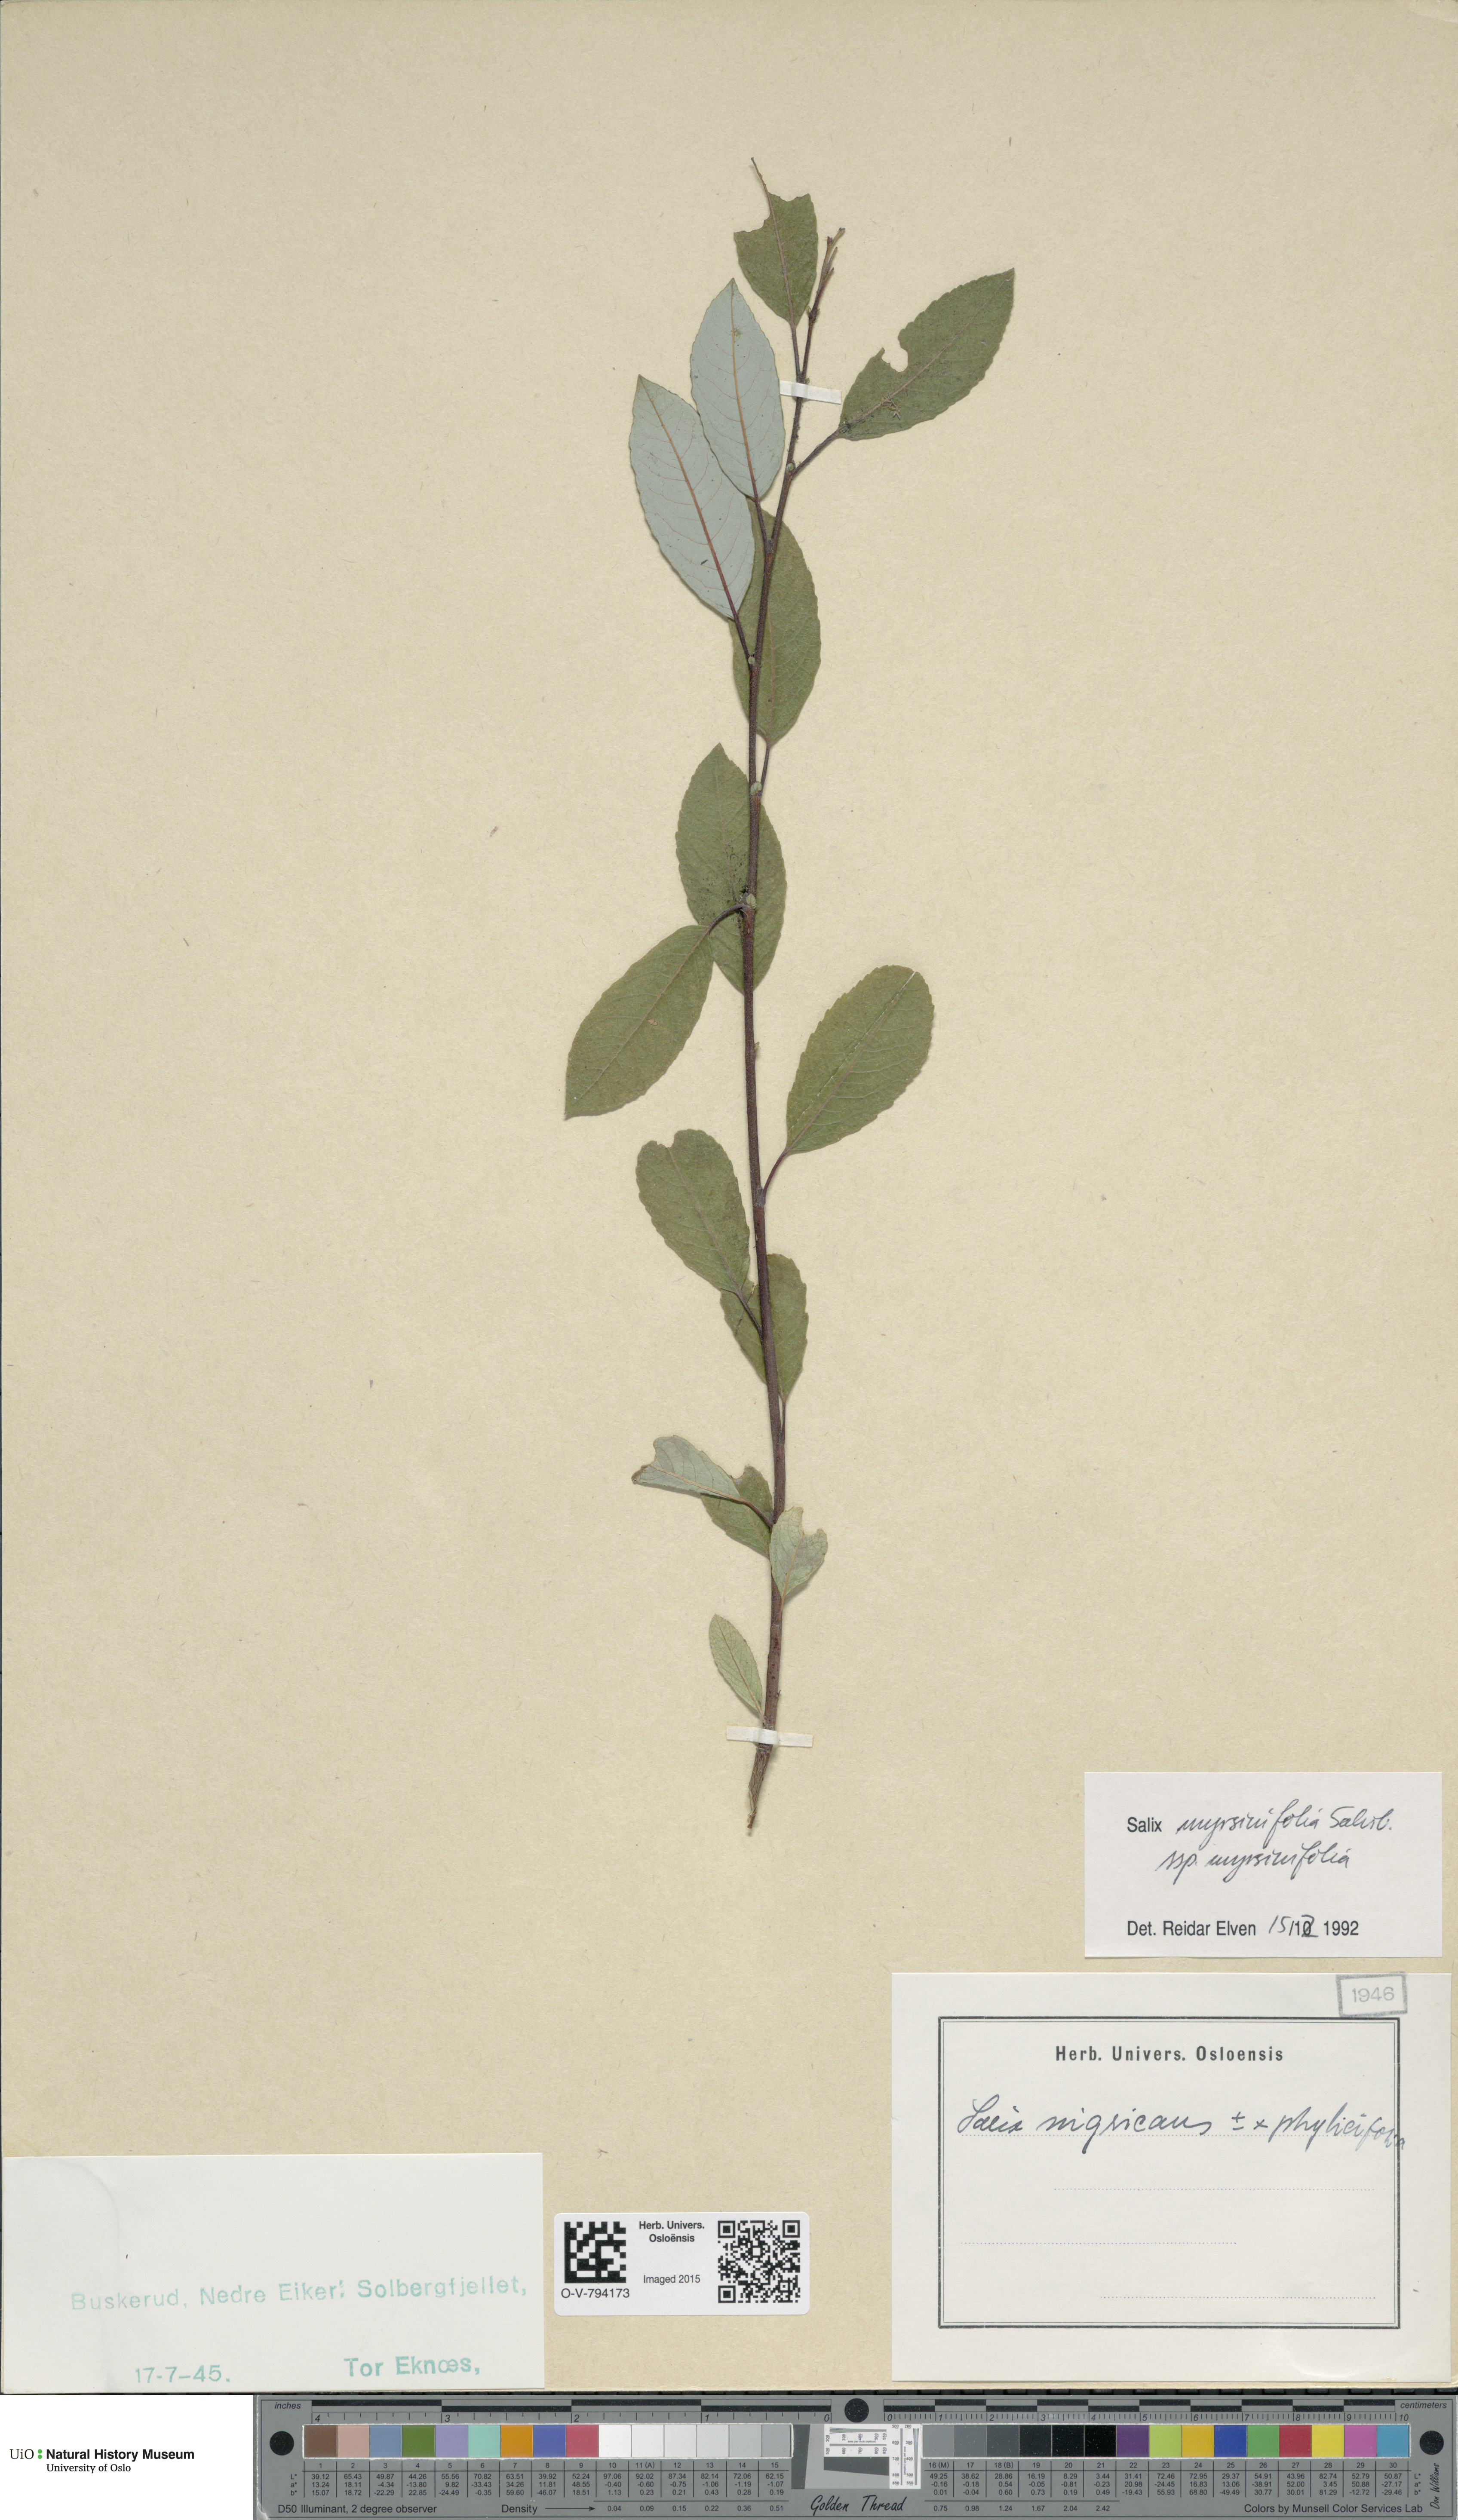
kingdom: Plantae
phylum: Tracheophyta
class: Magnoliopsida
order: Malpighiales
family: Salicaceae
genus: Salix
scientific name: Salix myrsinifolia
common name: Dark-leaved willow
